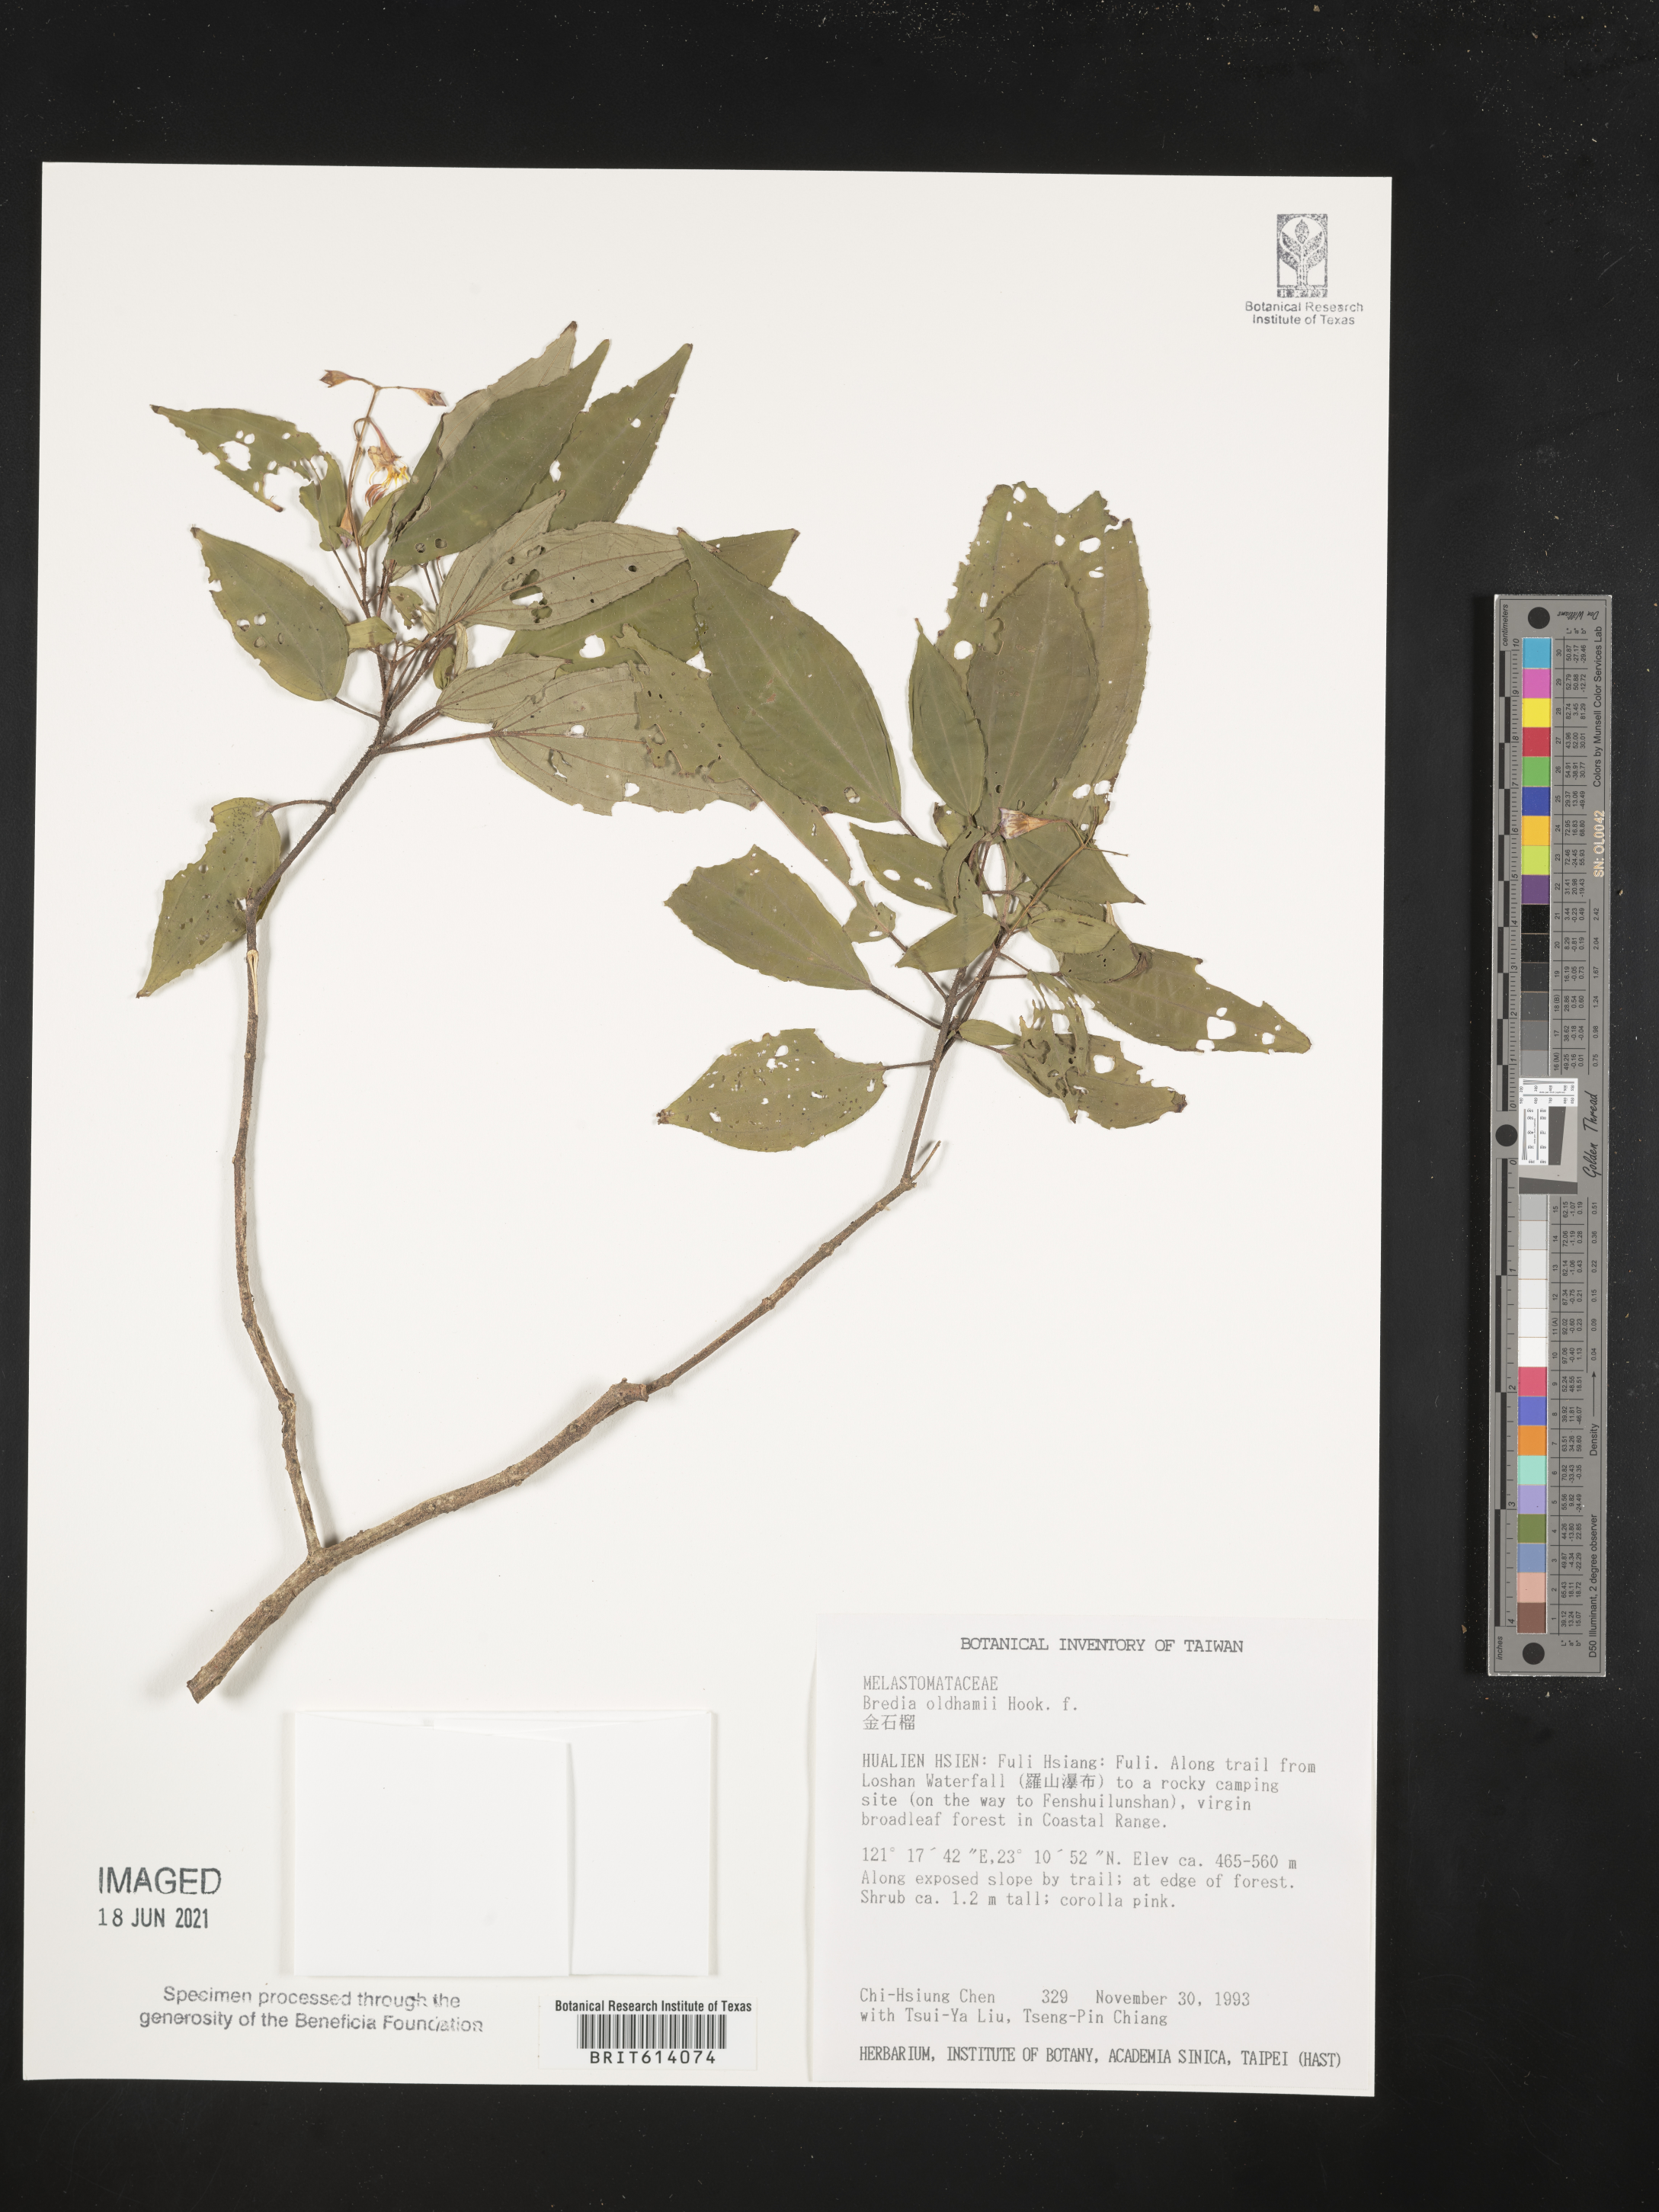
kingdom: Plantae
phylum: Tracheophyta
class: Magnoliopsida
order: Myrtales
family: Melastomataceae
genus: Bredia
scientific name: Bredia oldhamii
